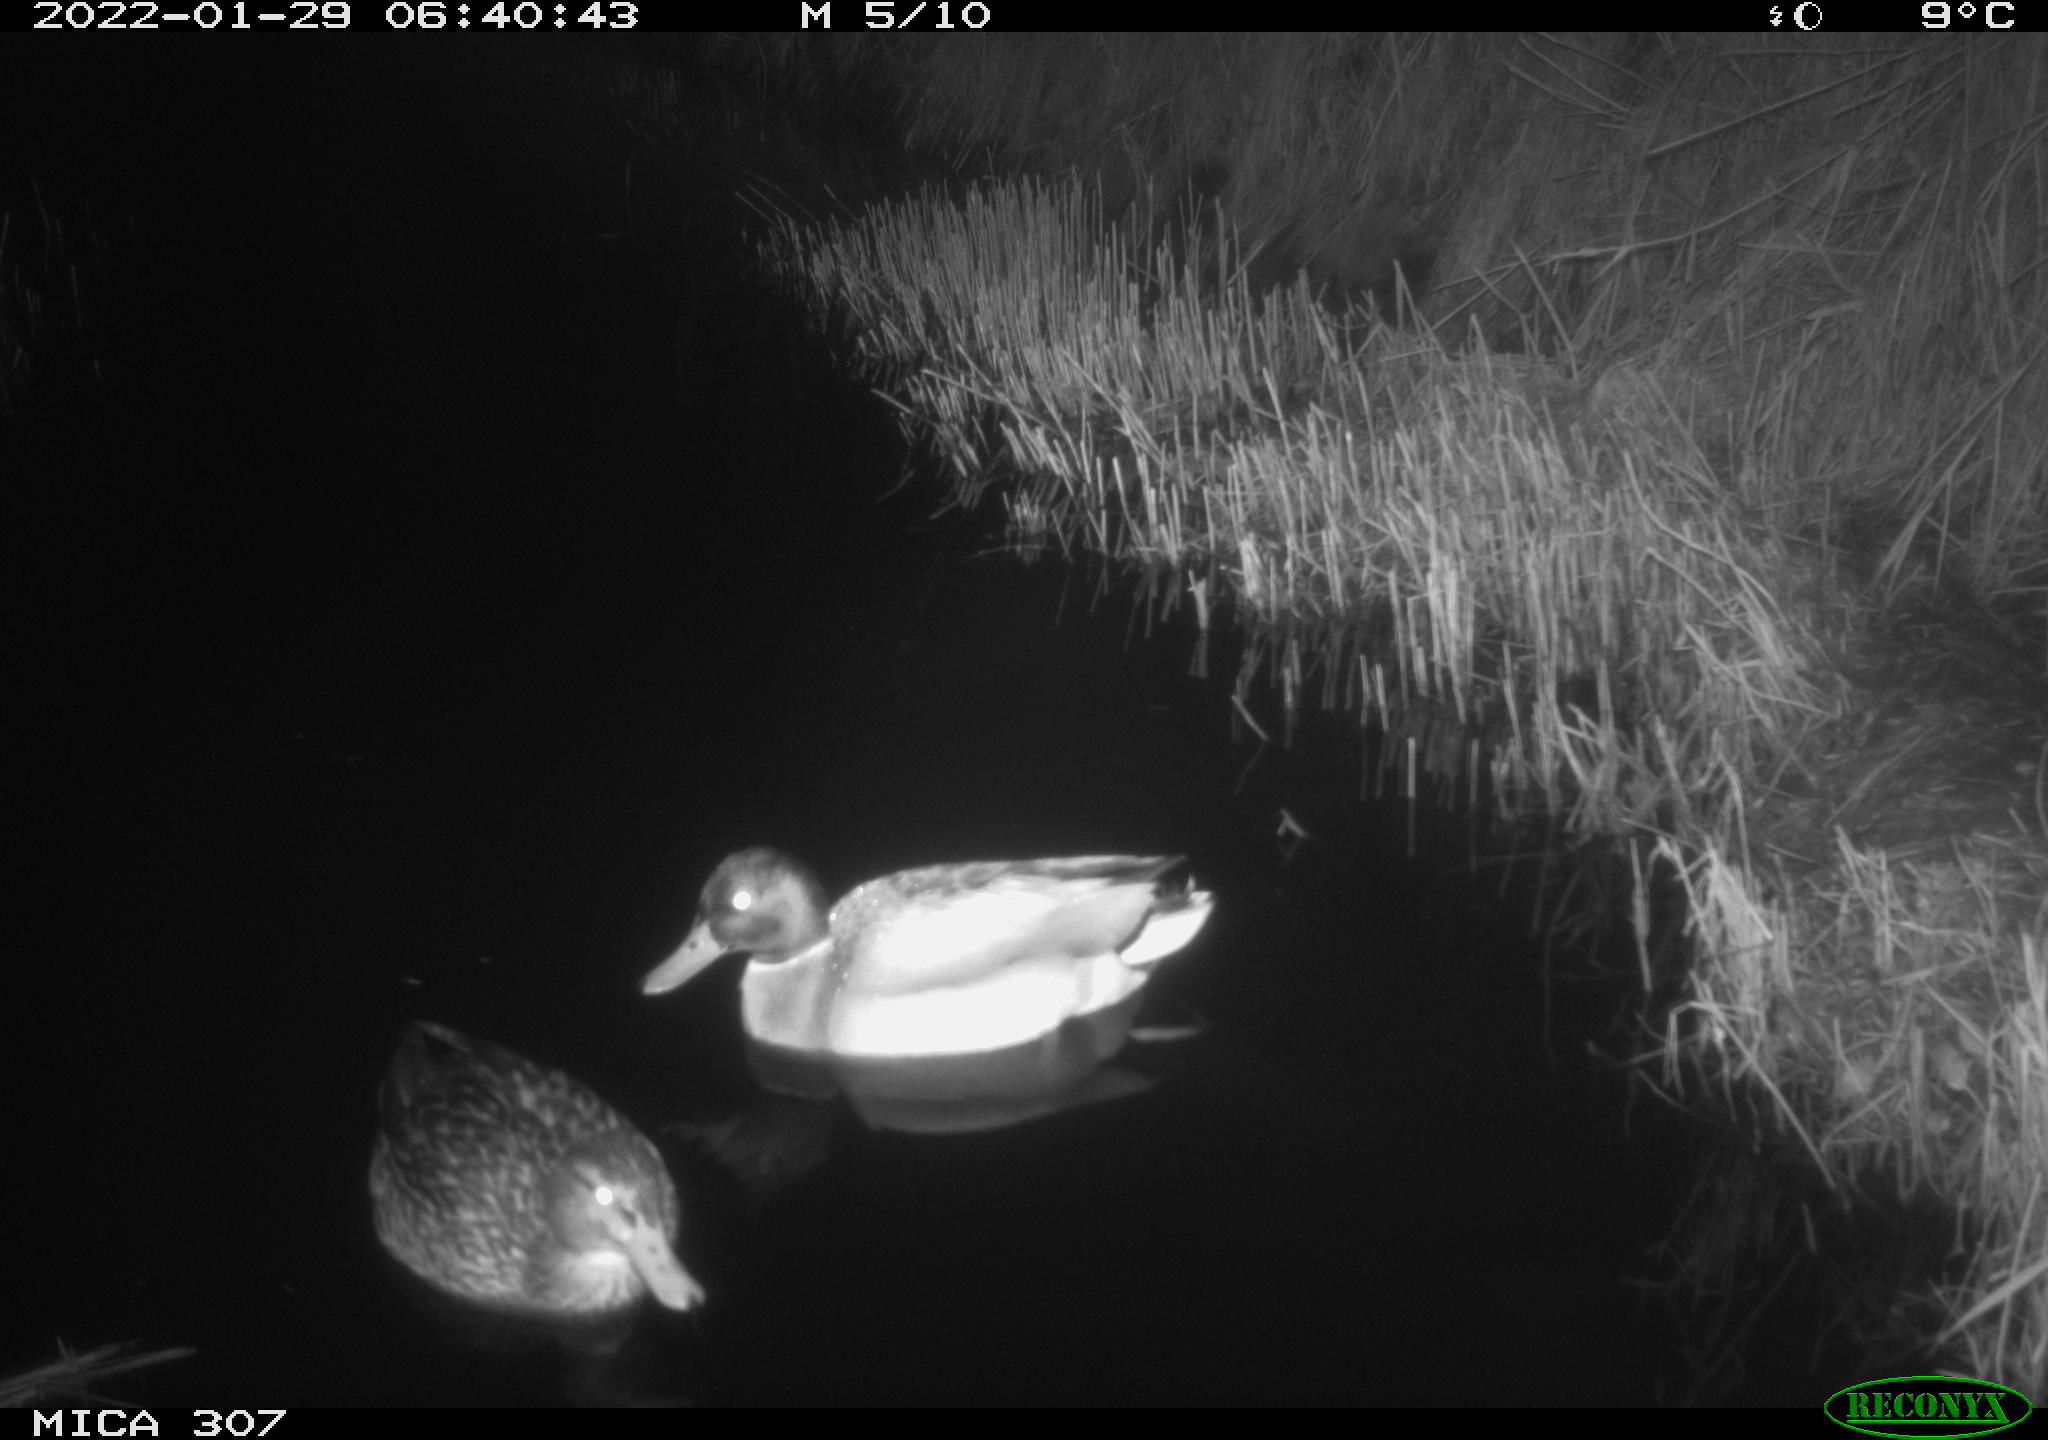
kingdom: Animalia
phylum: Chordata
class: Aves
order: Anseriformes
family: Anatidae
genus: Anas
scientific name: Anas
